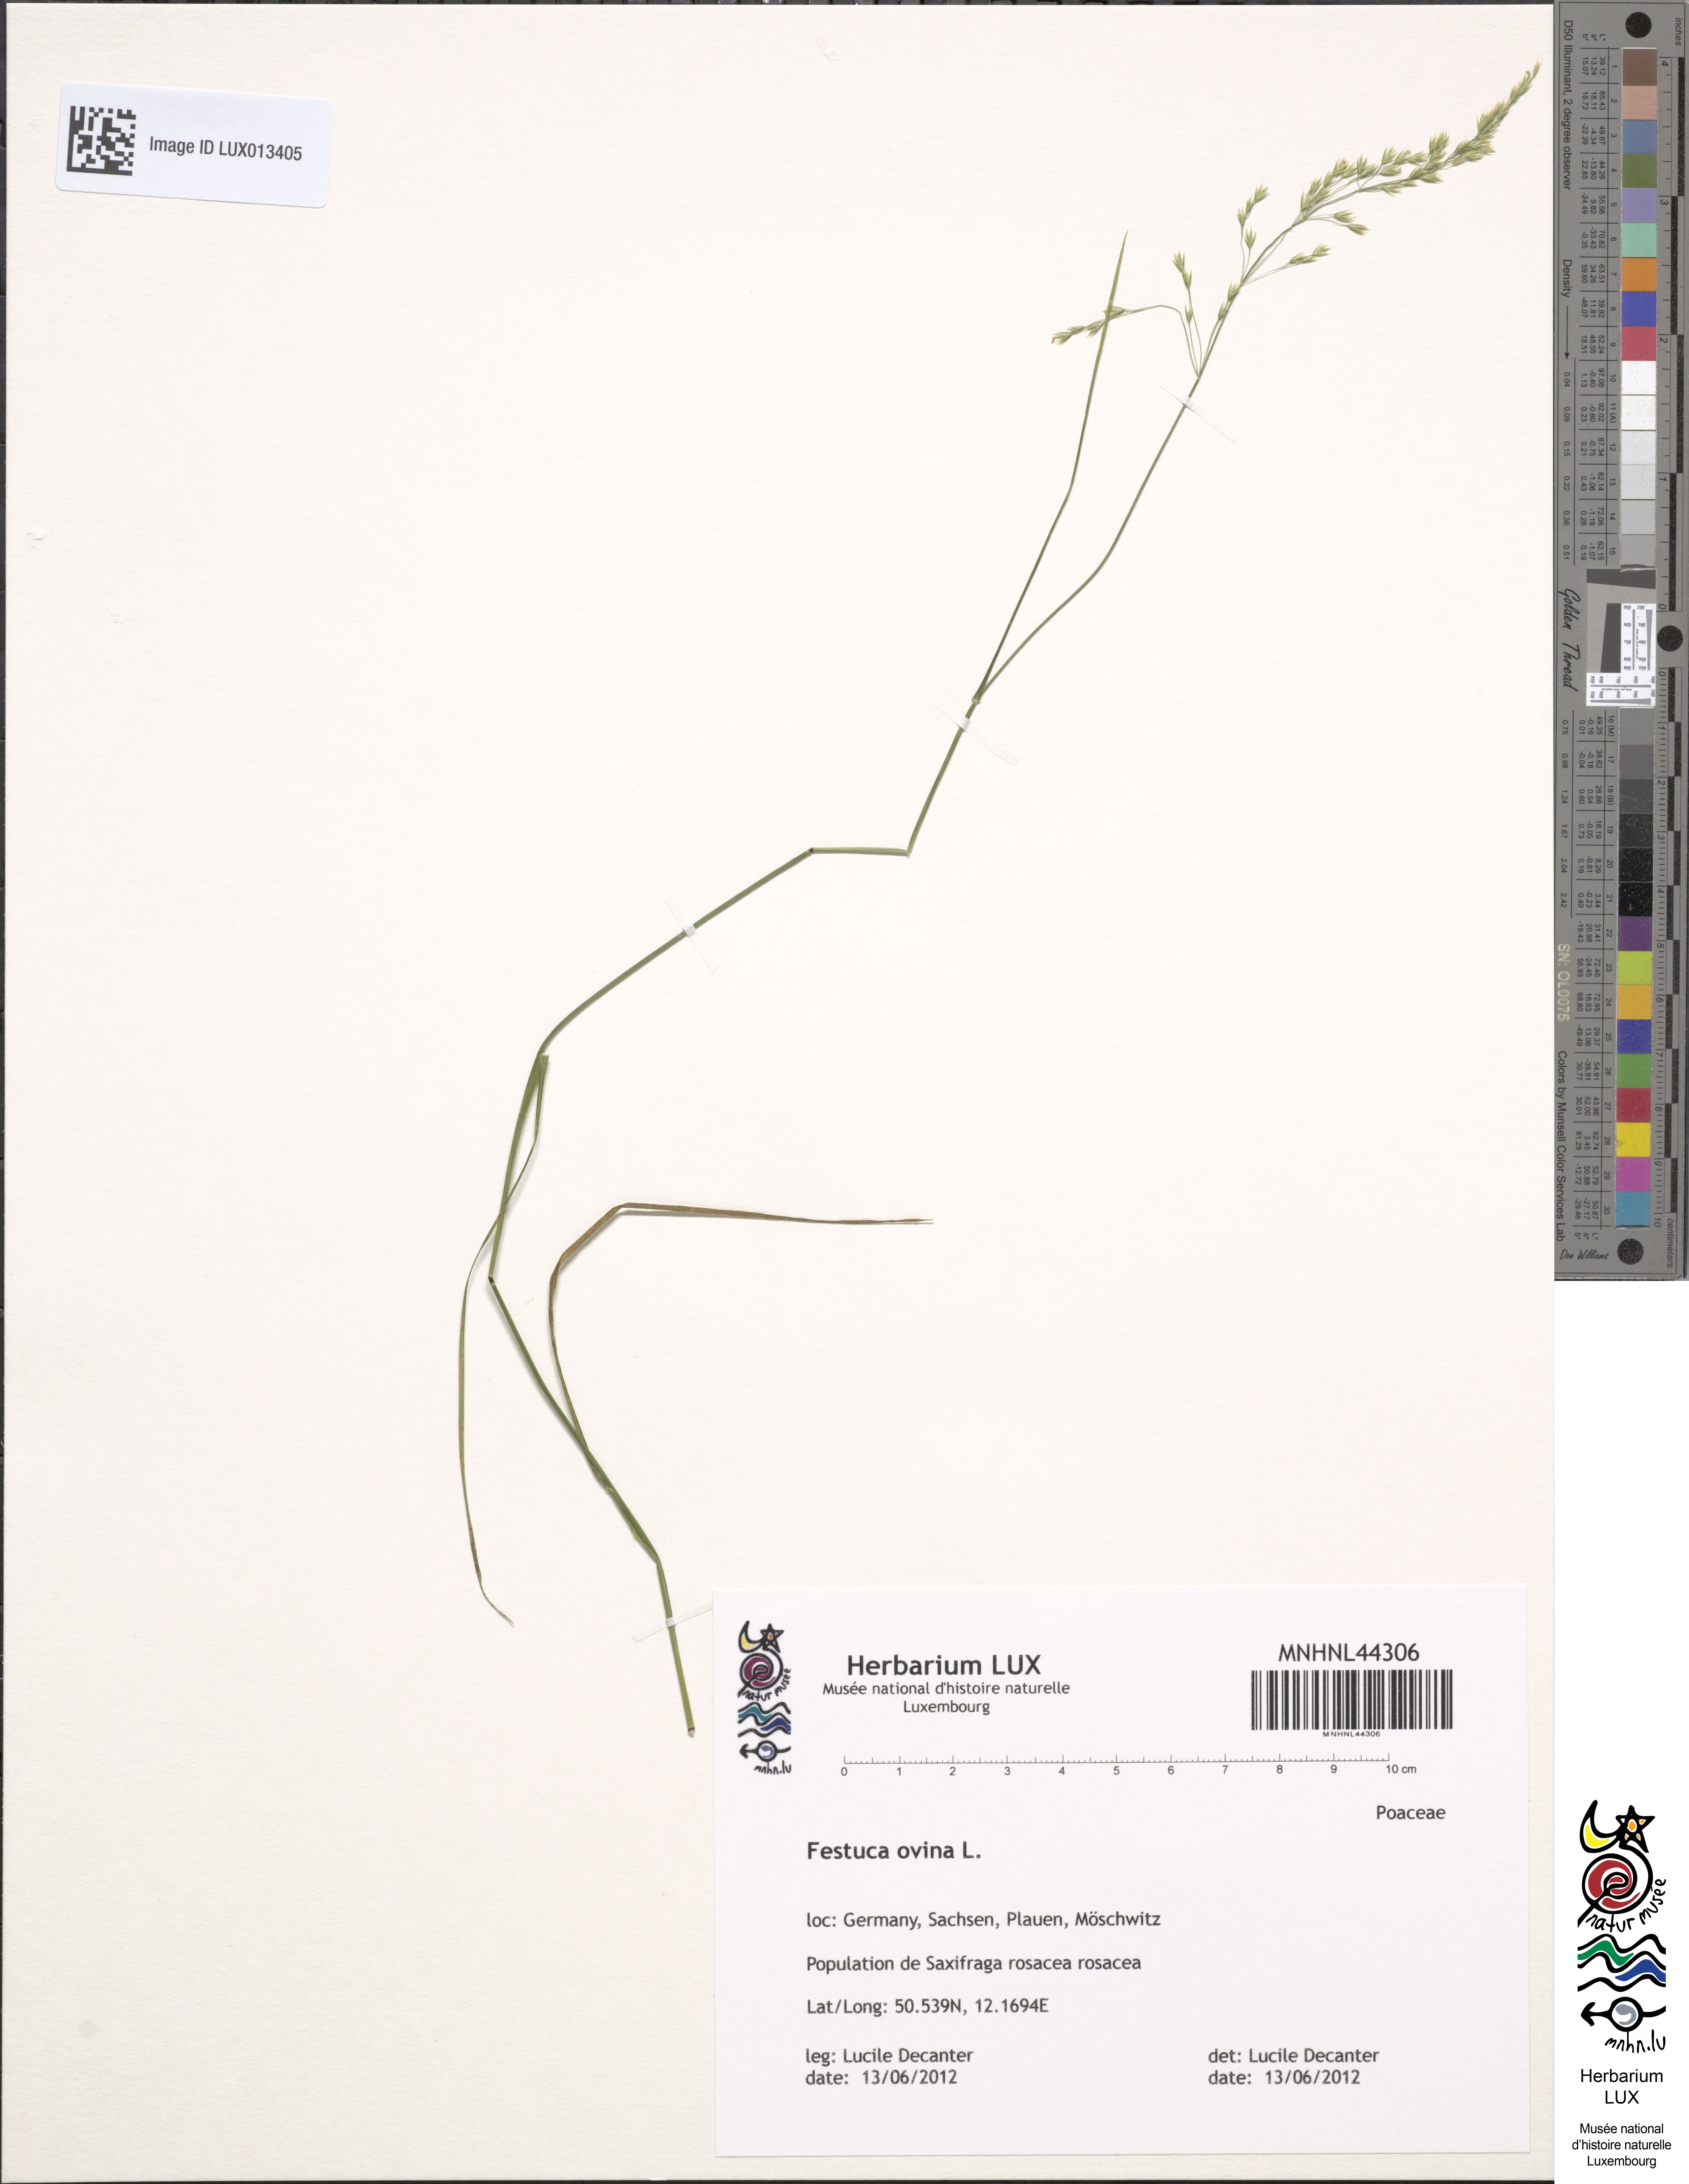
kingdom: Plantae
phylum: Tracheophyta
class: Liliopsida
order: Poales
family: Poaceae
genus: Festuca
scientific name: Festuca ovina
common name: Sheep fescue
